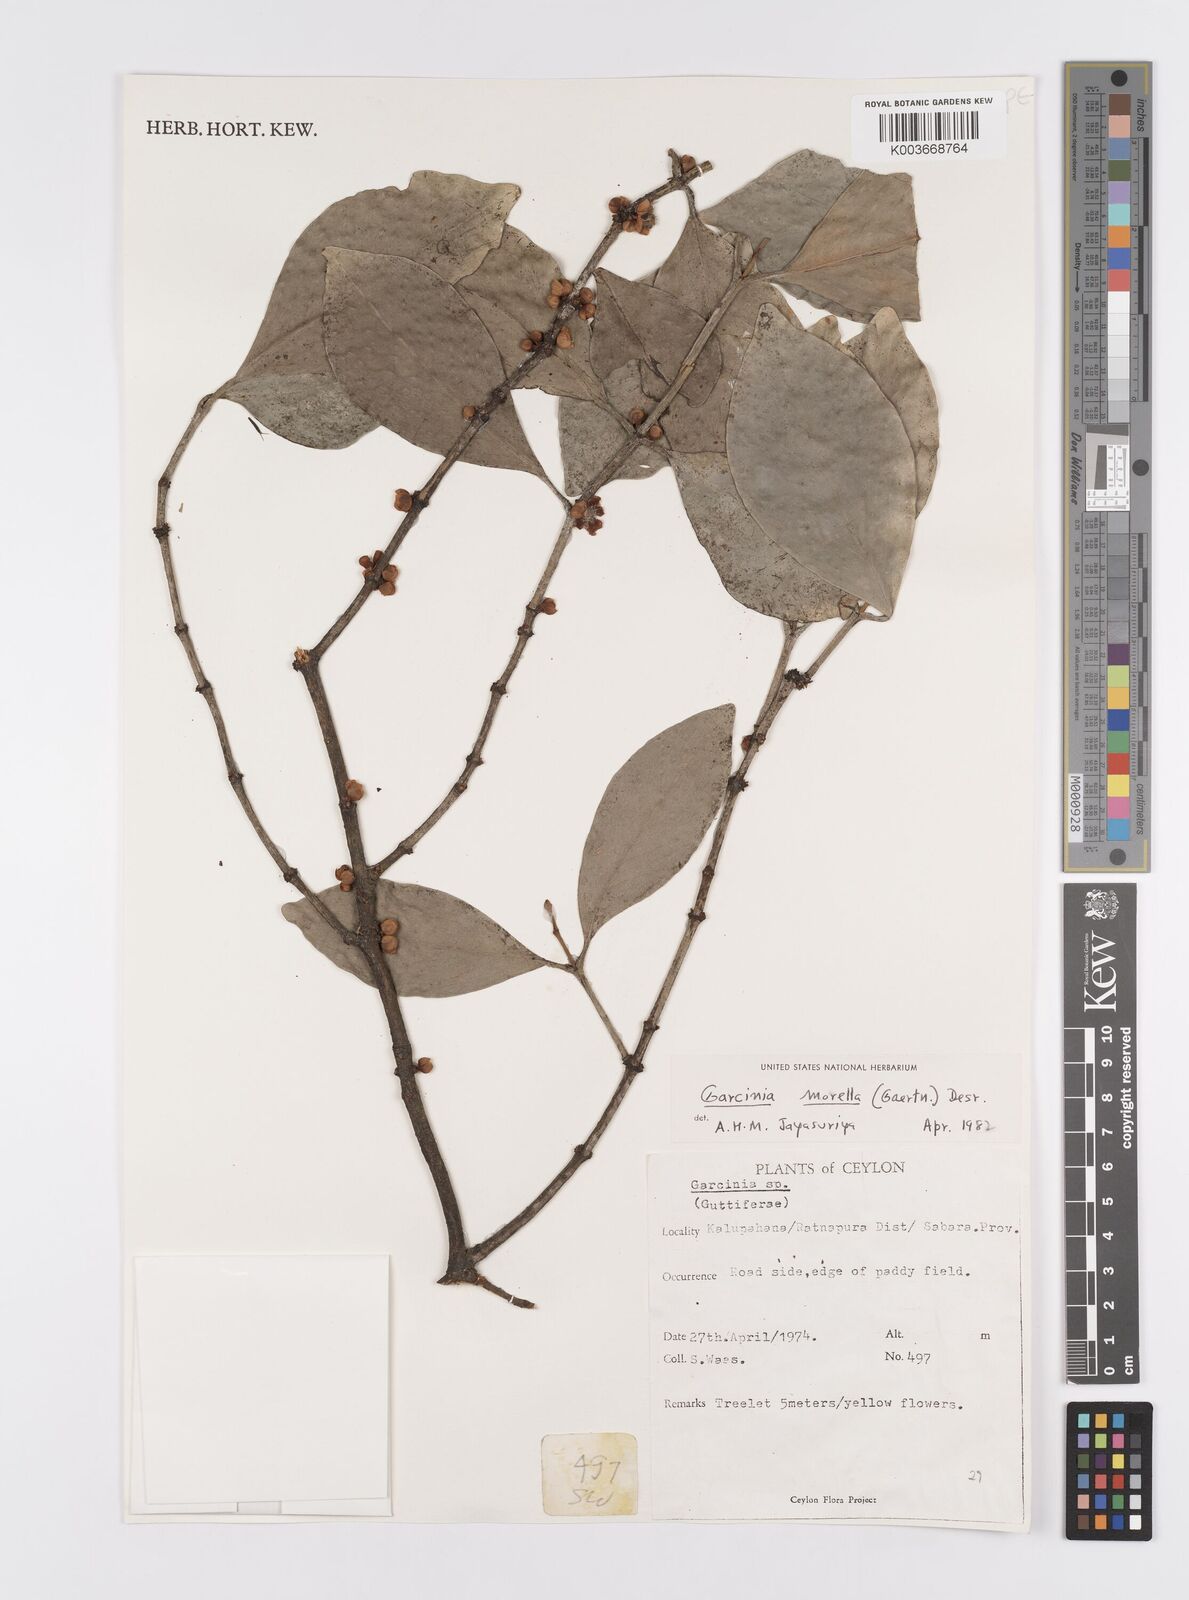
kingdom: Plantae
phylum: Tracheophyta
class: Magnoliopsida
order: Malpighiales
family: Clusiaceae
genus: Garcinia
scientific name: Garcinia morella
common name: Indian gamboge-tree
